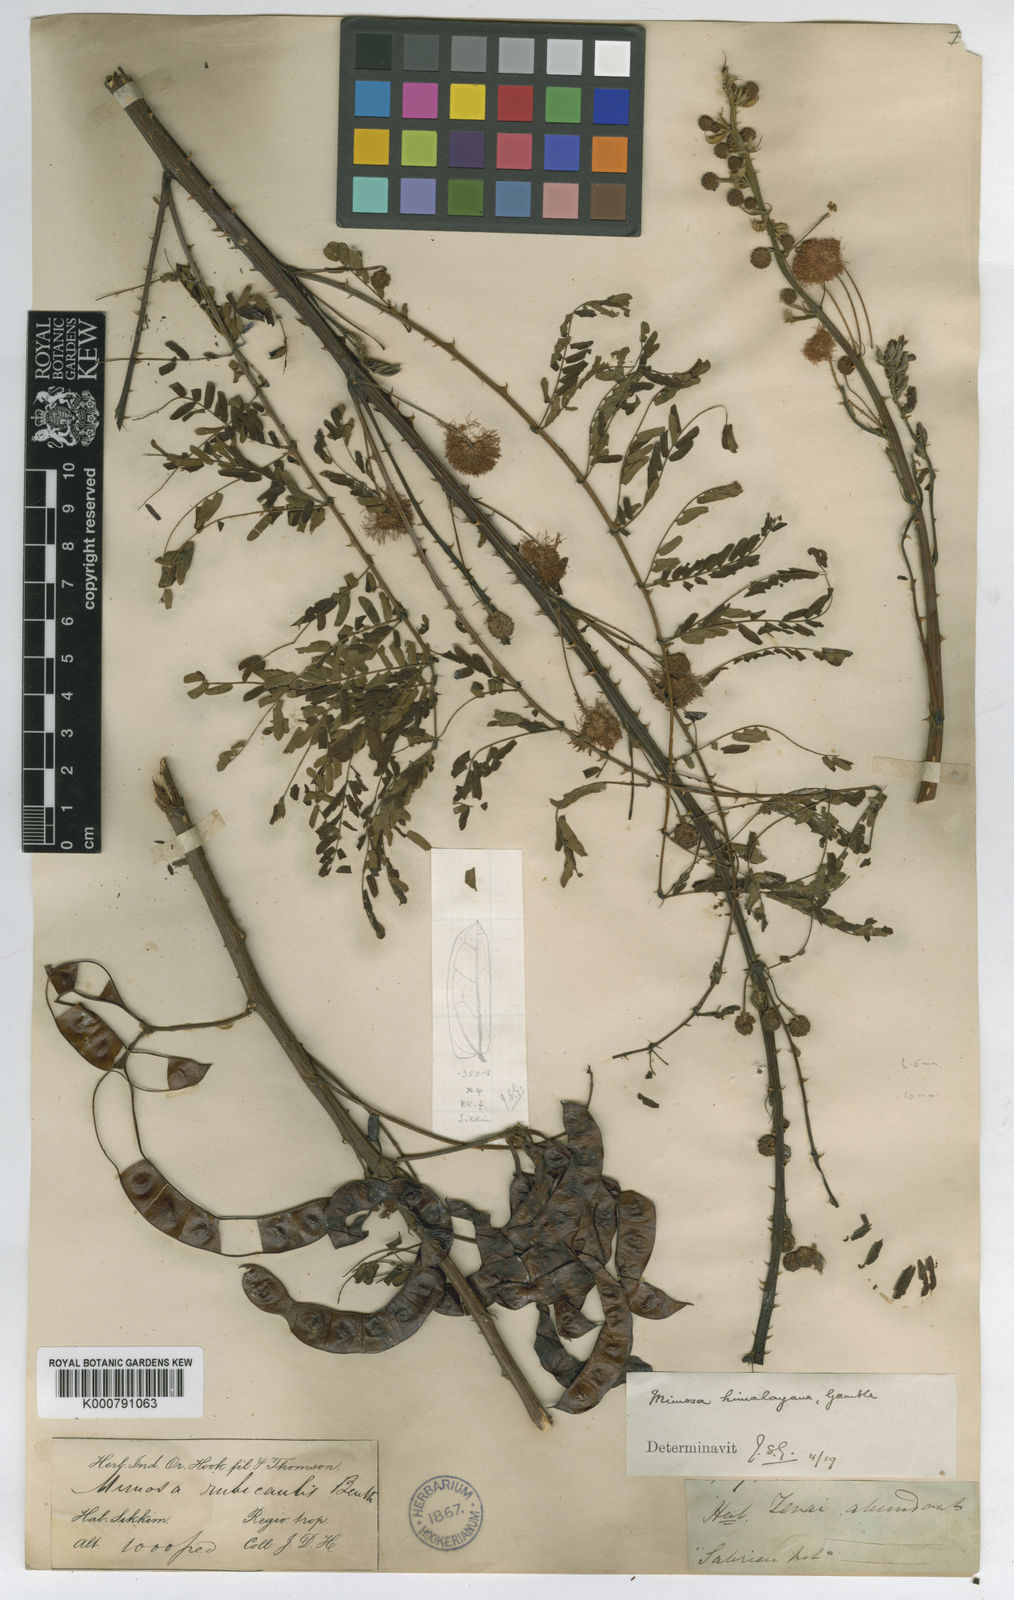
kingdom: Plantae
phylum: Tracheophyta
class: Magnoliopsida
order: Fabales
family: Fabaceae
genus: Mimosa
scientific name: Mimosa rubicaulis
